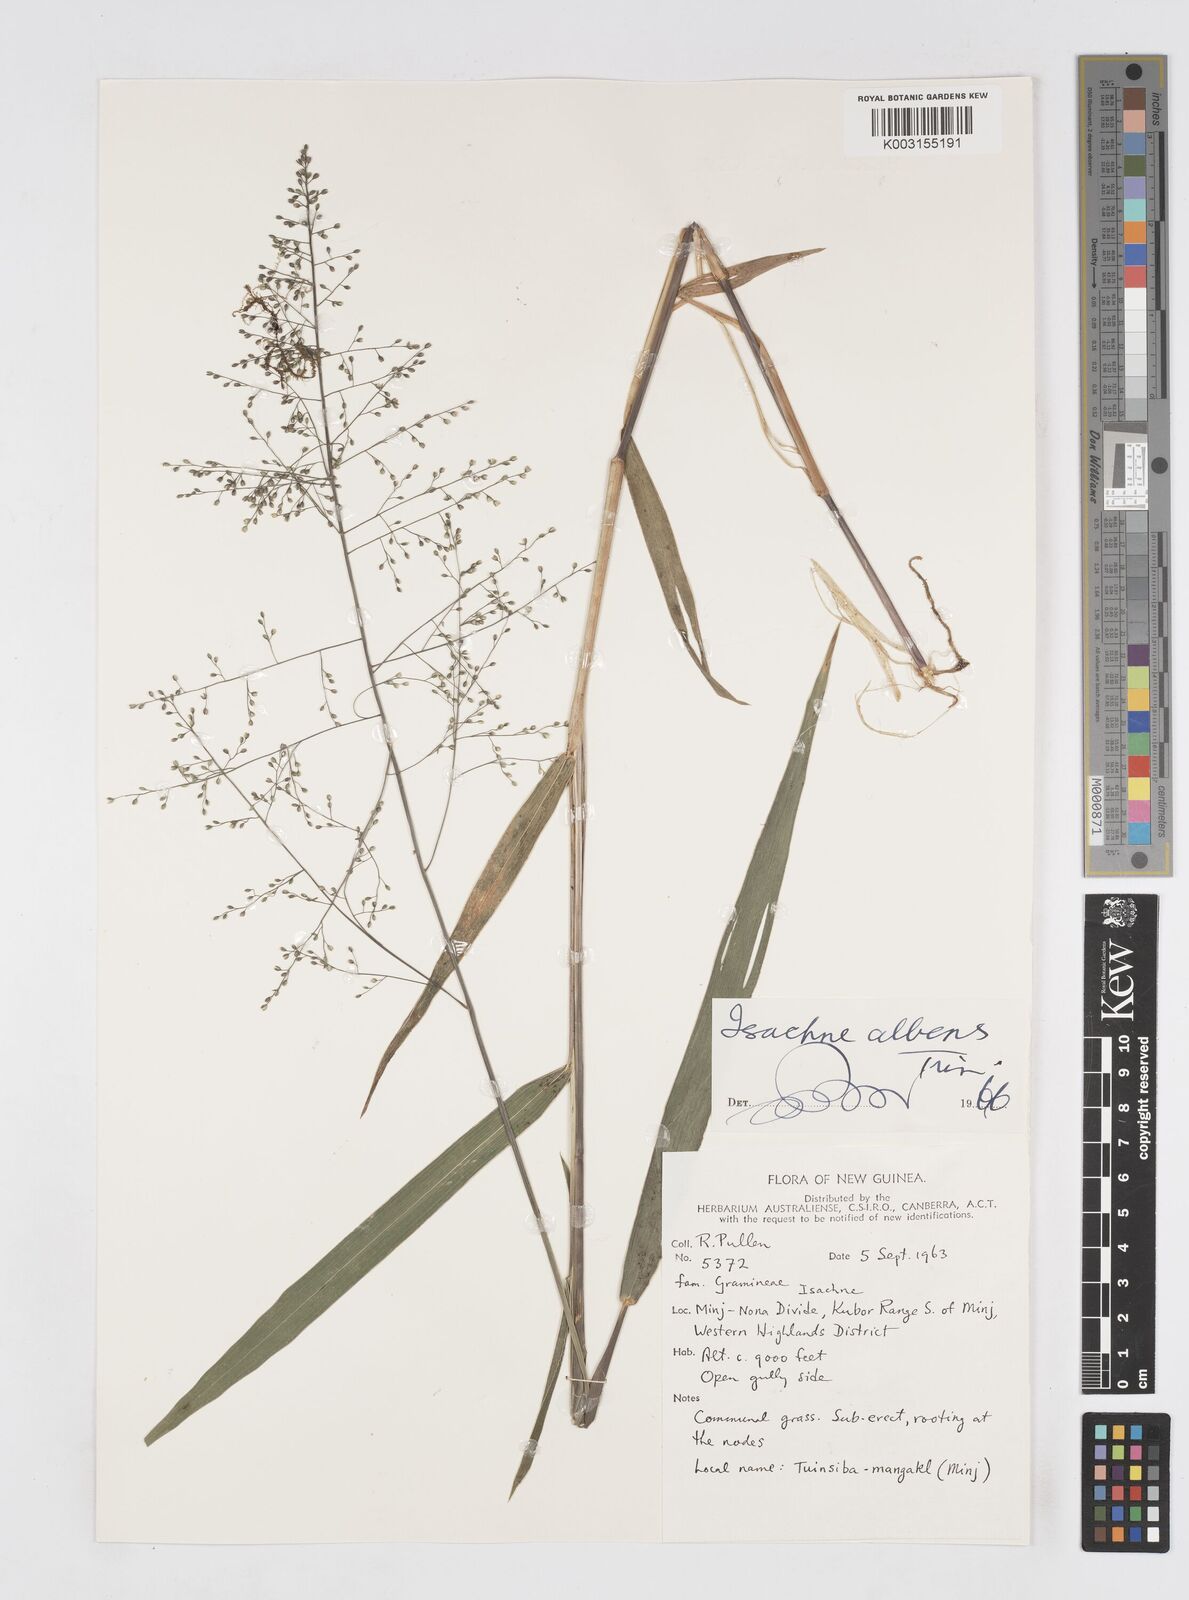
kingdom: Plantae
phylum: Tracheophyta
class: Liliopsida
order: Poales
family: Poaceae
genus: Isachne
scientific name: Isachne albens
